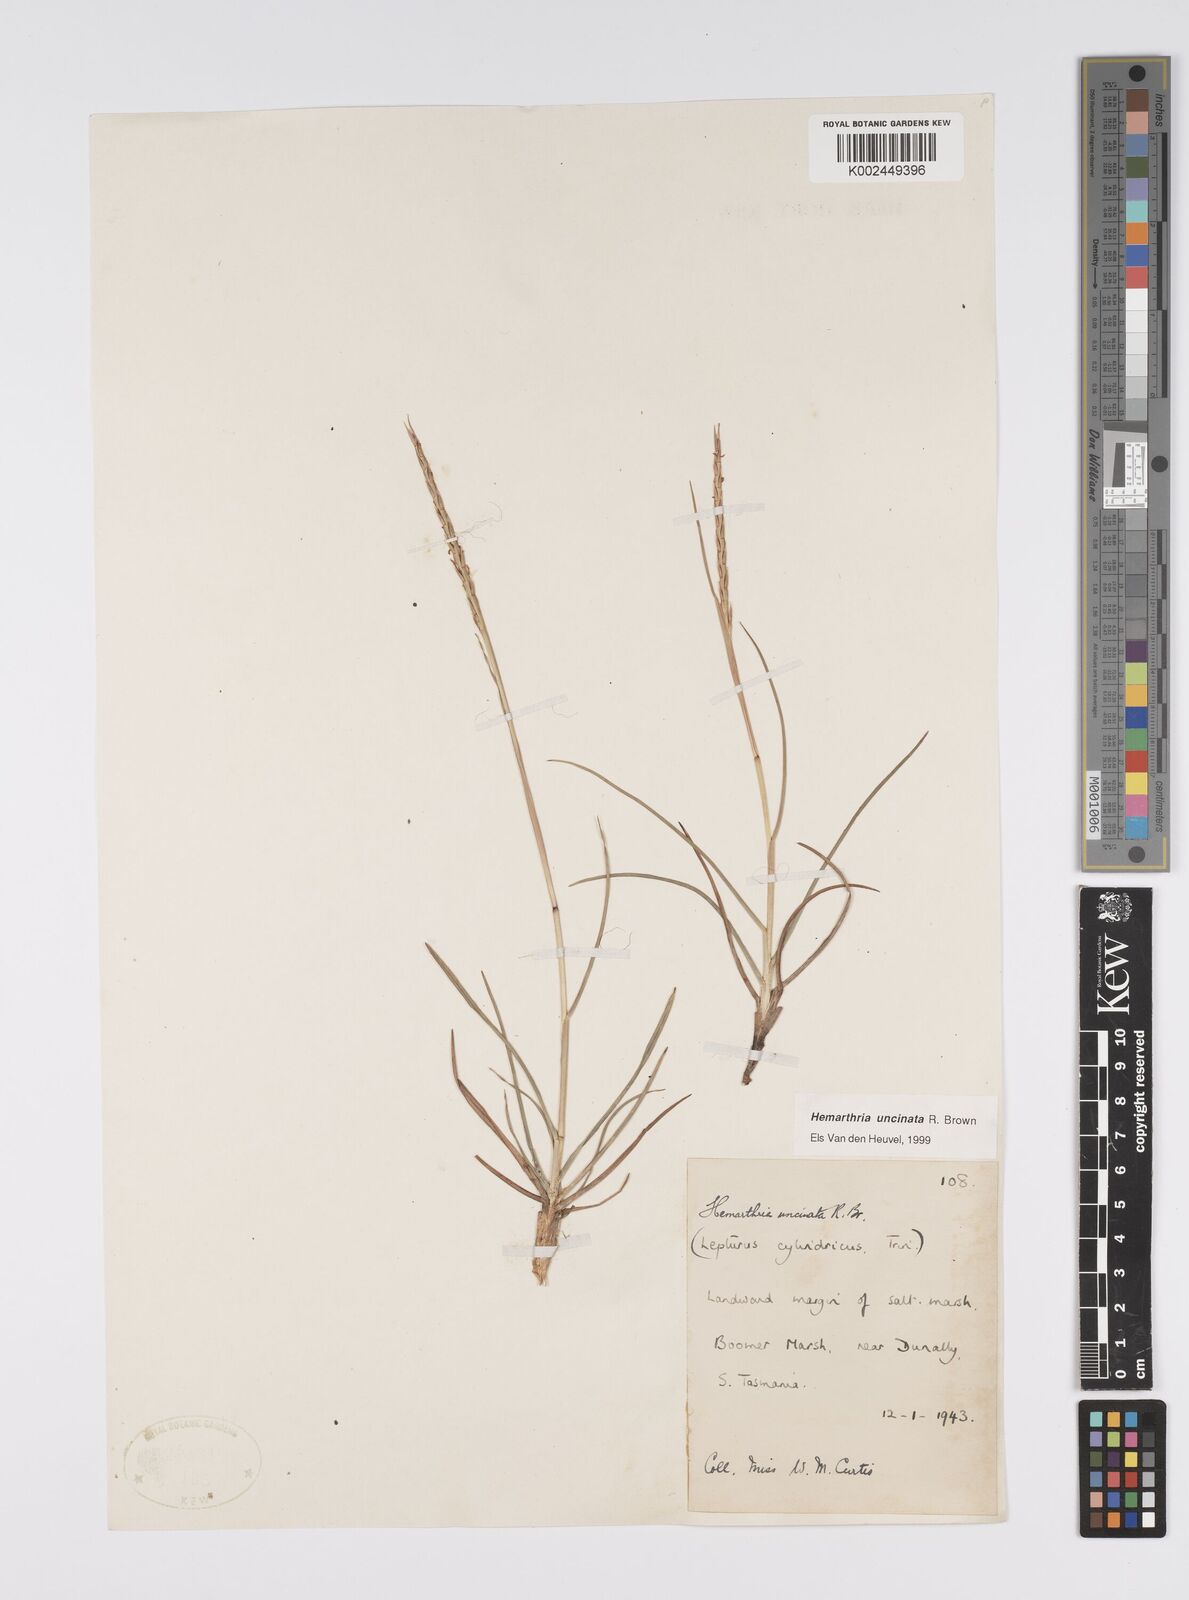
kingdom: Plantae
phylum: Tracheophyta
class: Liliopsida
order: Poales
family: Poaceae
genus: Hemarthria
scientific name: Hemarthria uncinata
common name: Matgrass
